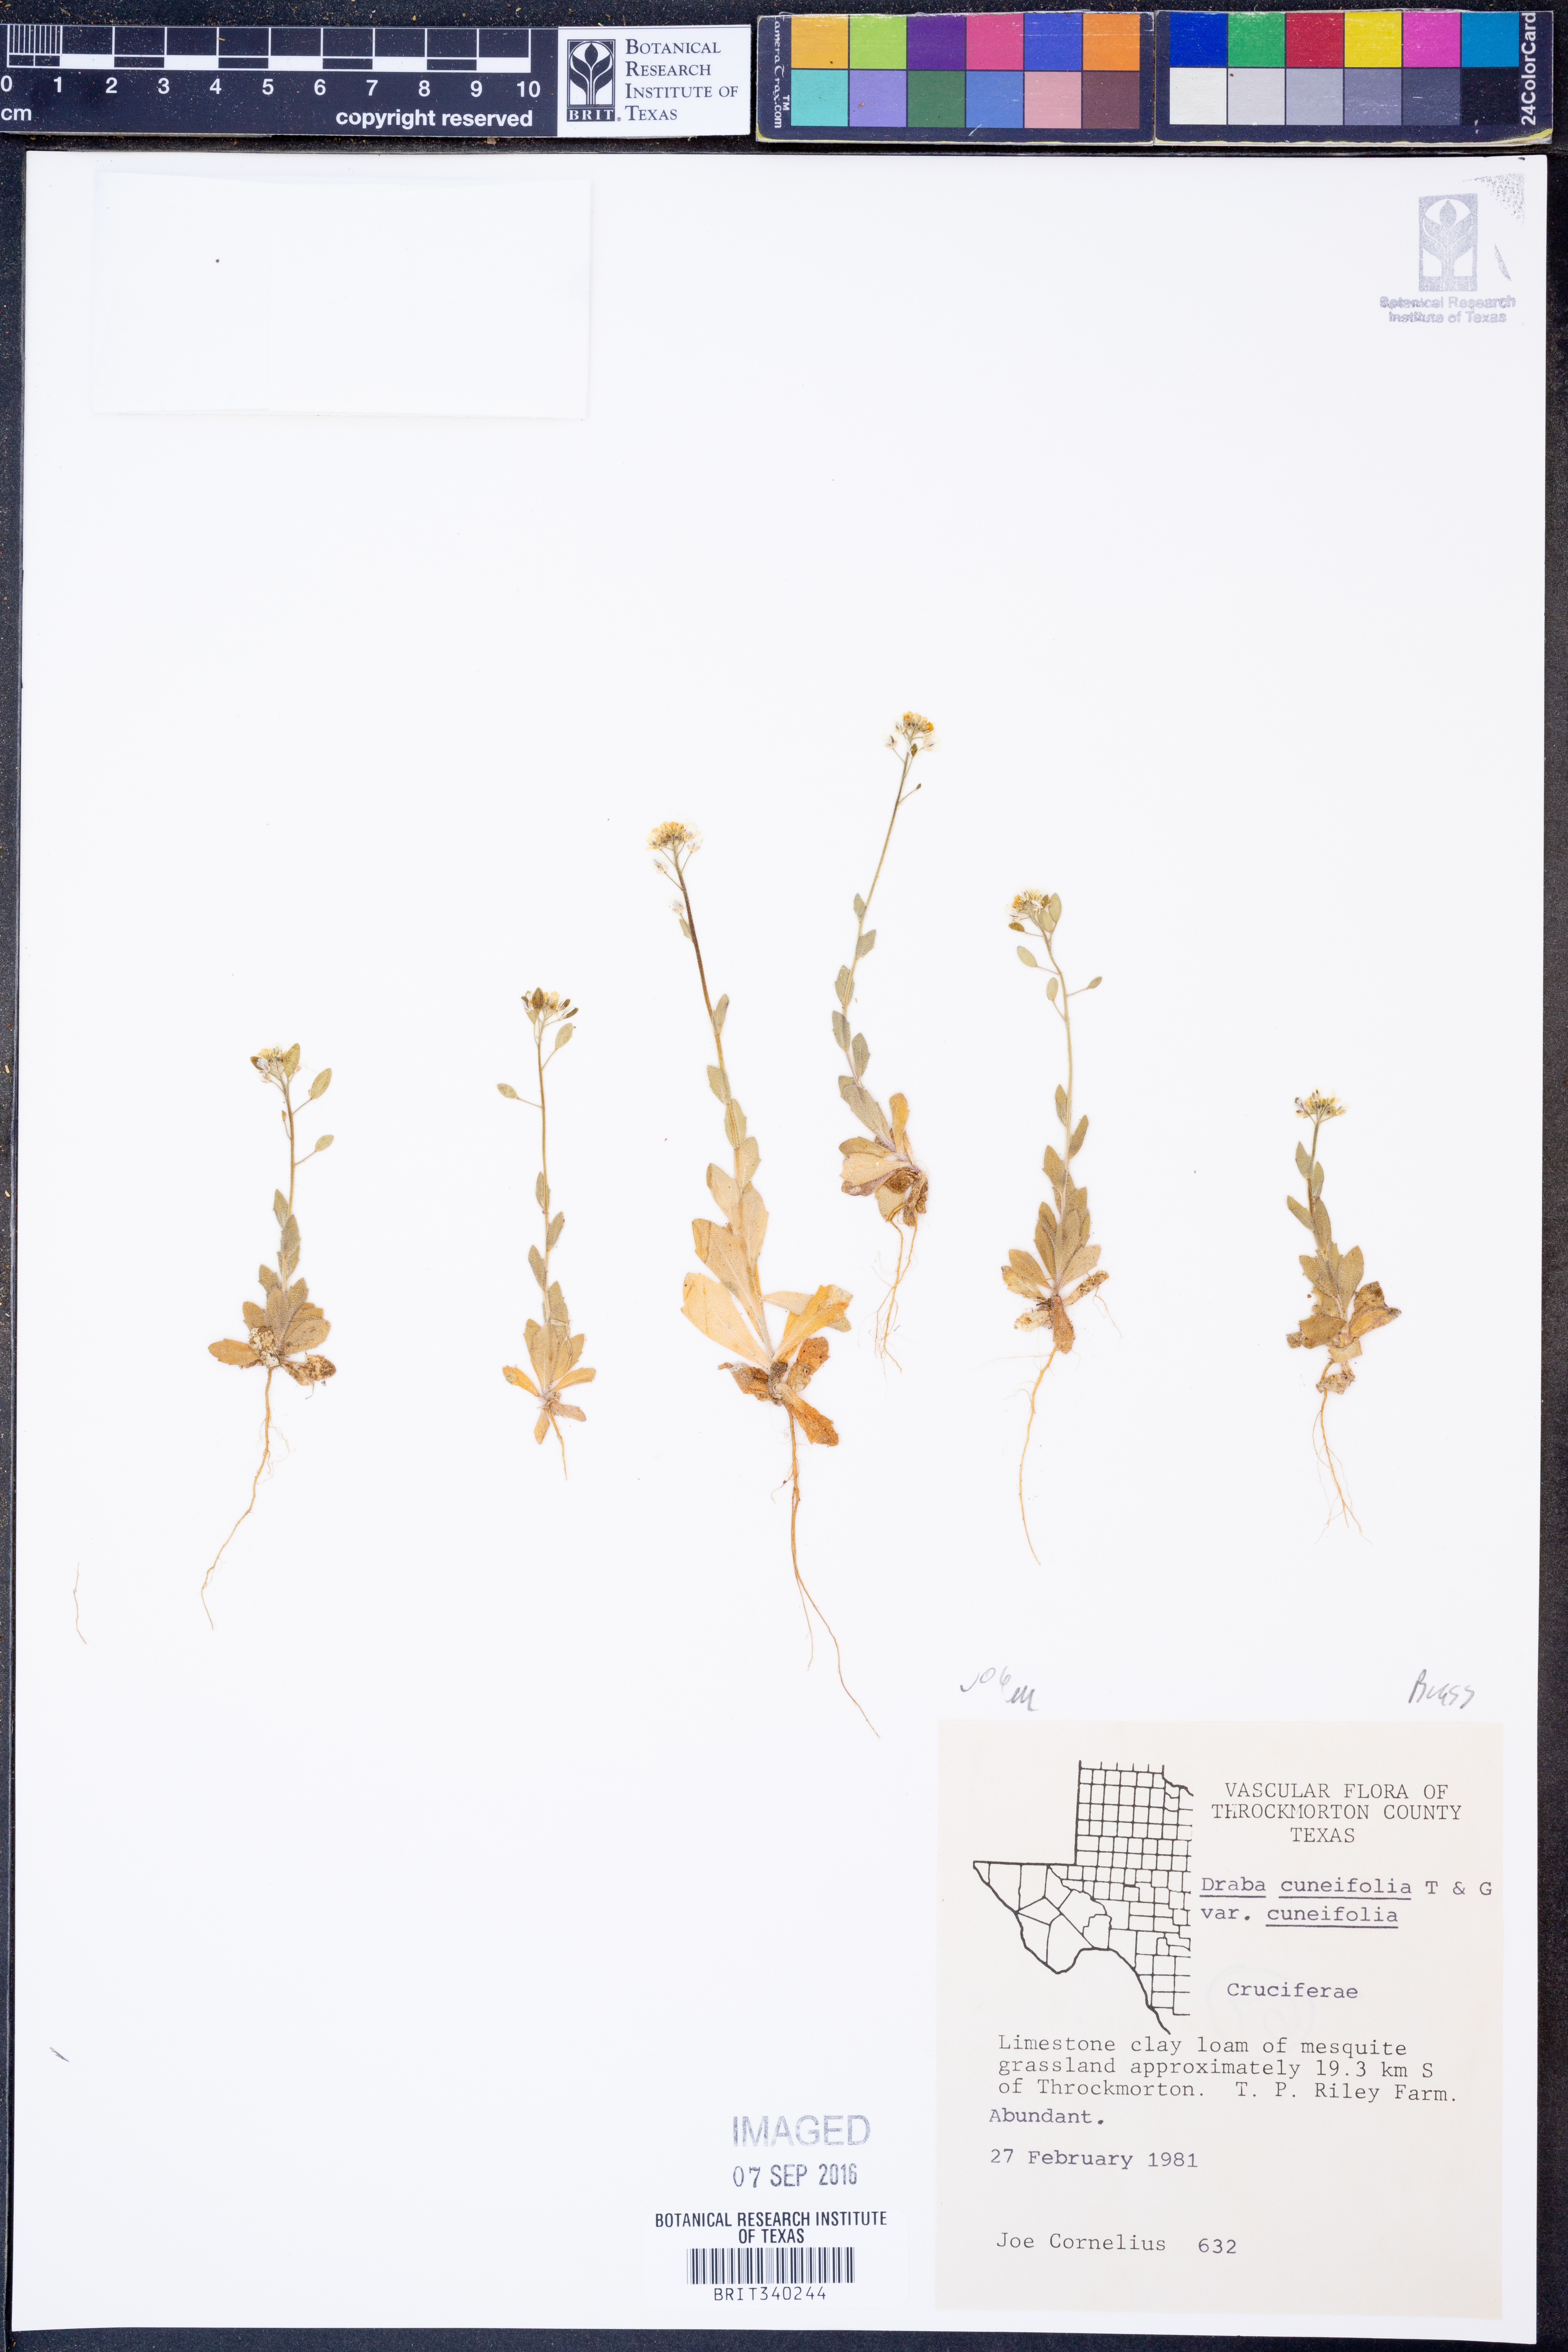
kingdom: Plantae
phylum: Tracheophyta
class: Magnoliopsida
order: Brassicales
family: Brassicaceae
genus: Tomostima
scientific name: Tomostima cuneifolia
